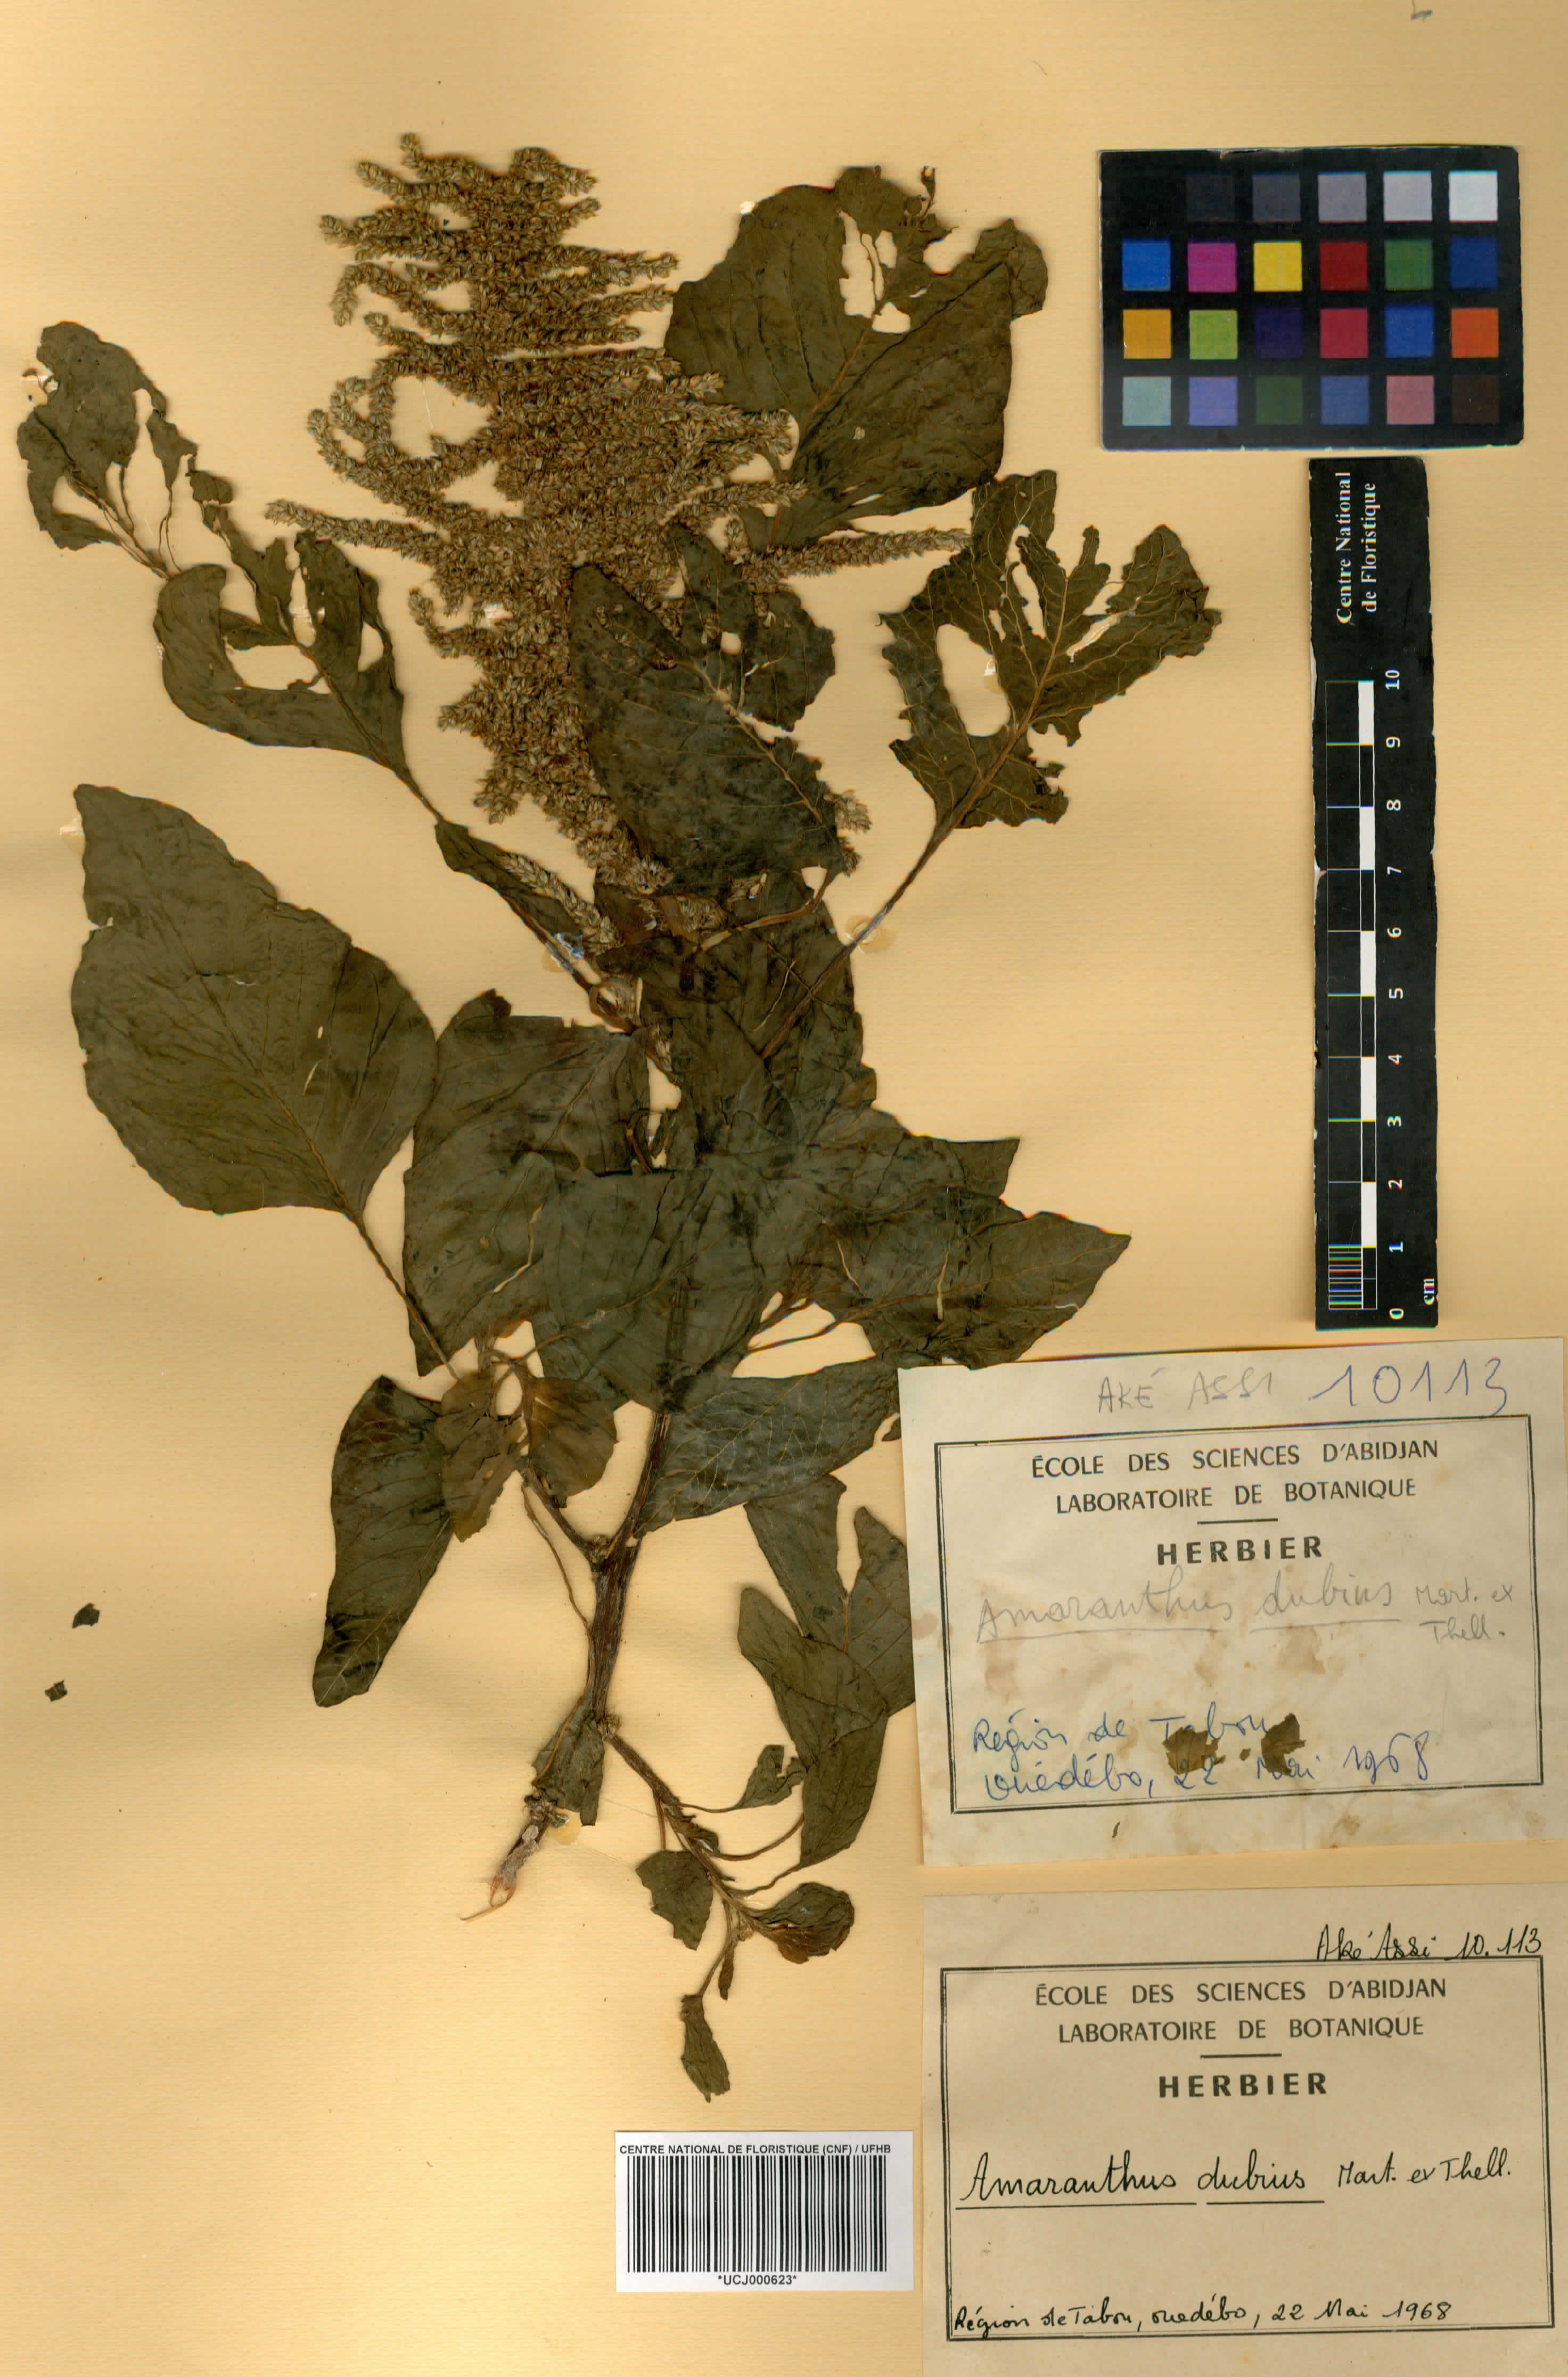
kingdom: Plantae
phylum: Tracheophyta
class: Magnoliopsida
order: Caryophyllales
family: Amaranthaceae
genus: Amaranthus
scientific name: Amaranthus dubius
